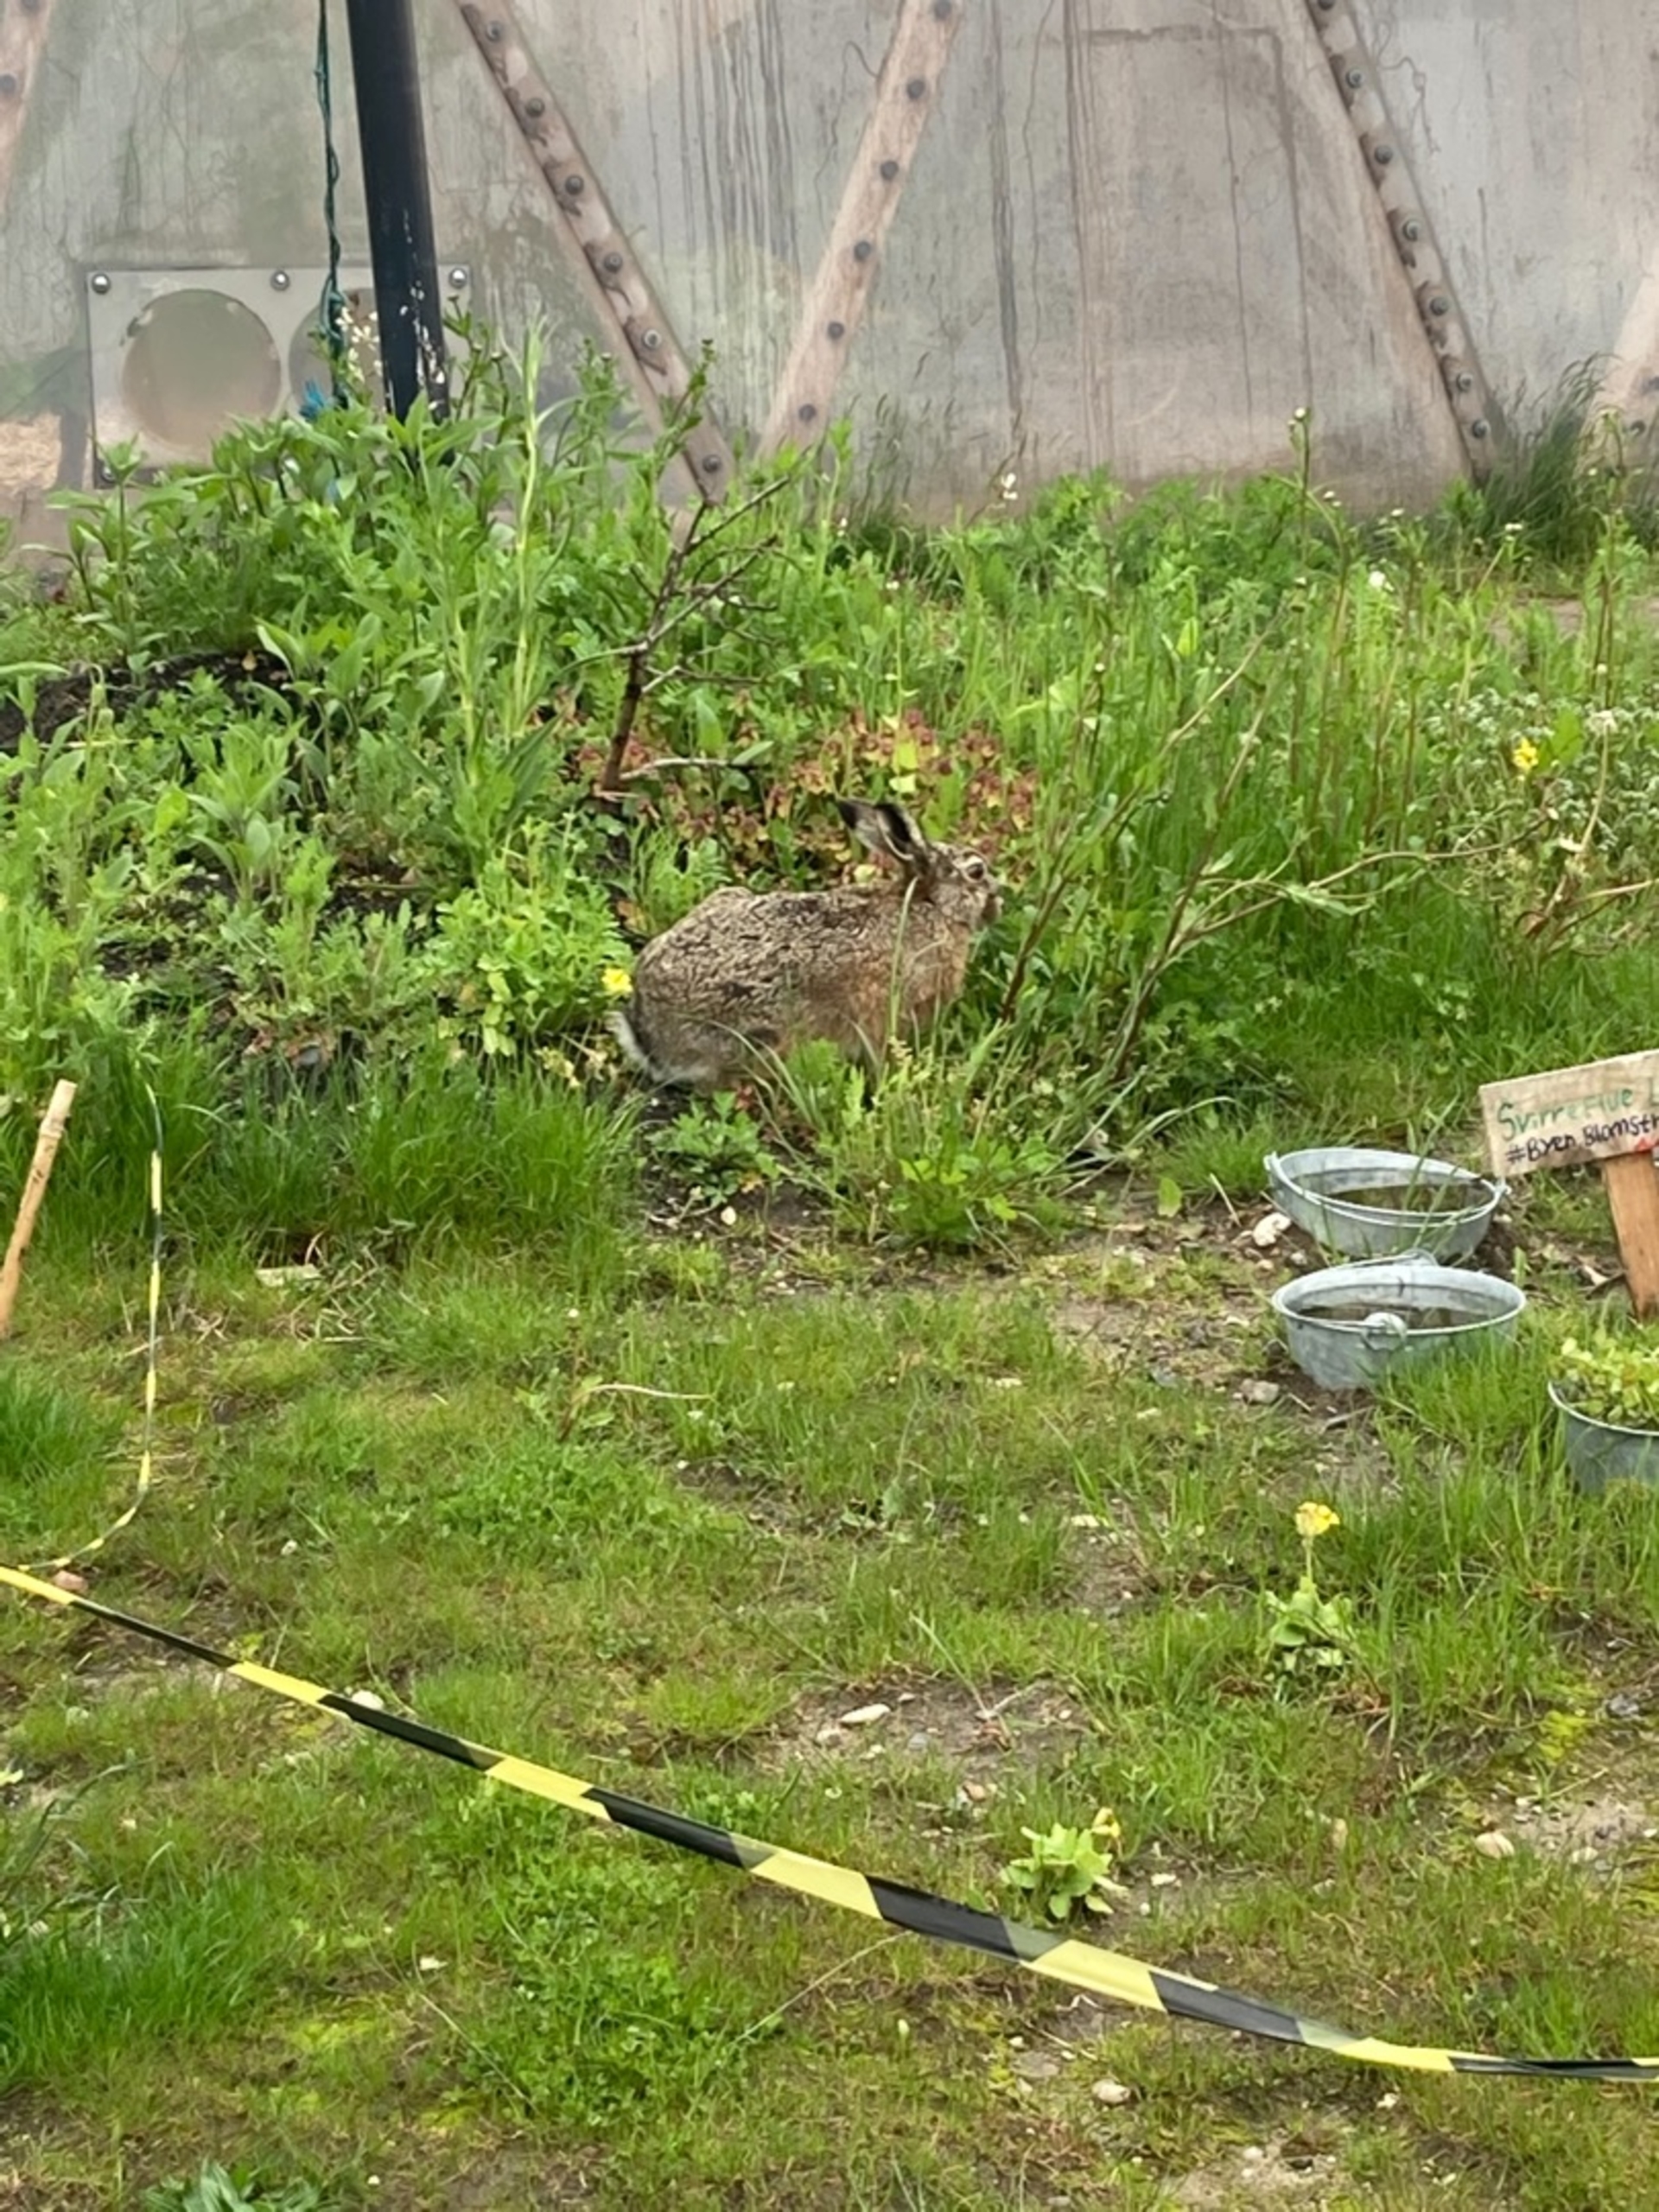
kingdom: Animalia
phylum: Chordata
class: Mammalia
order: Lagomorpha
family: Leporidae
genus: Lepus
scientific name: Lepus europaeus
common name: Hare
